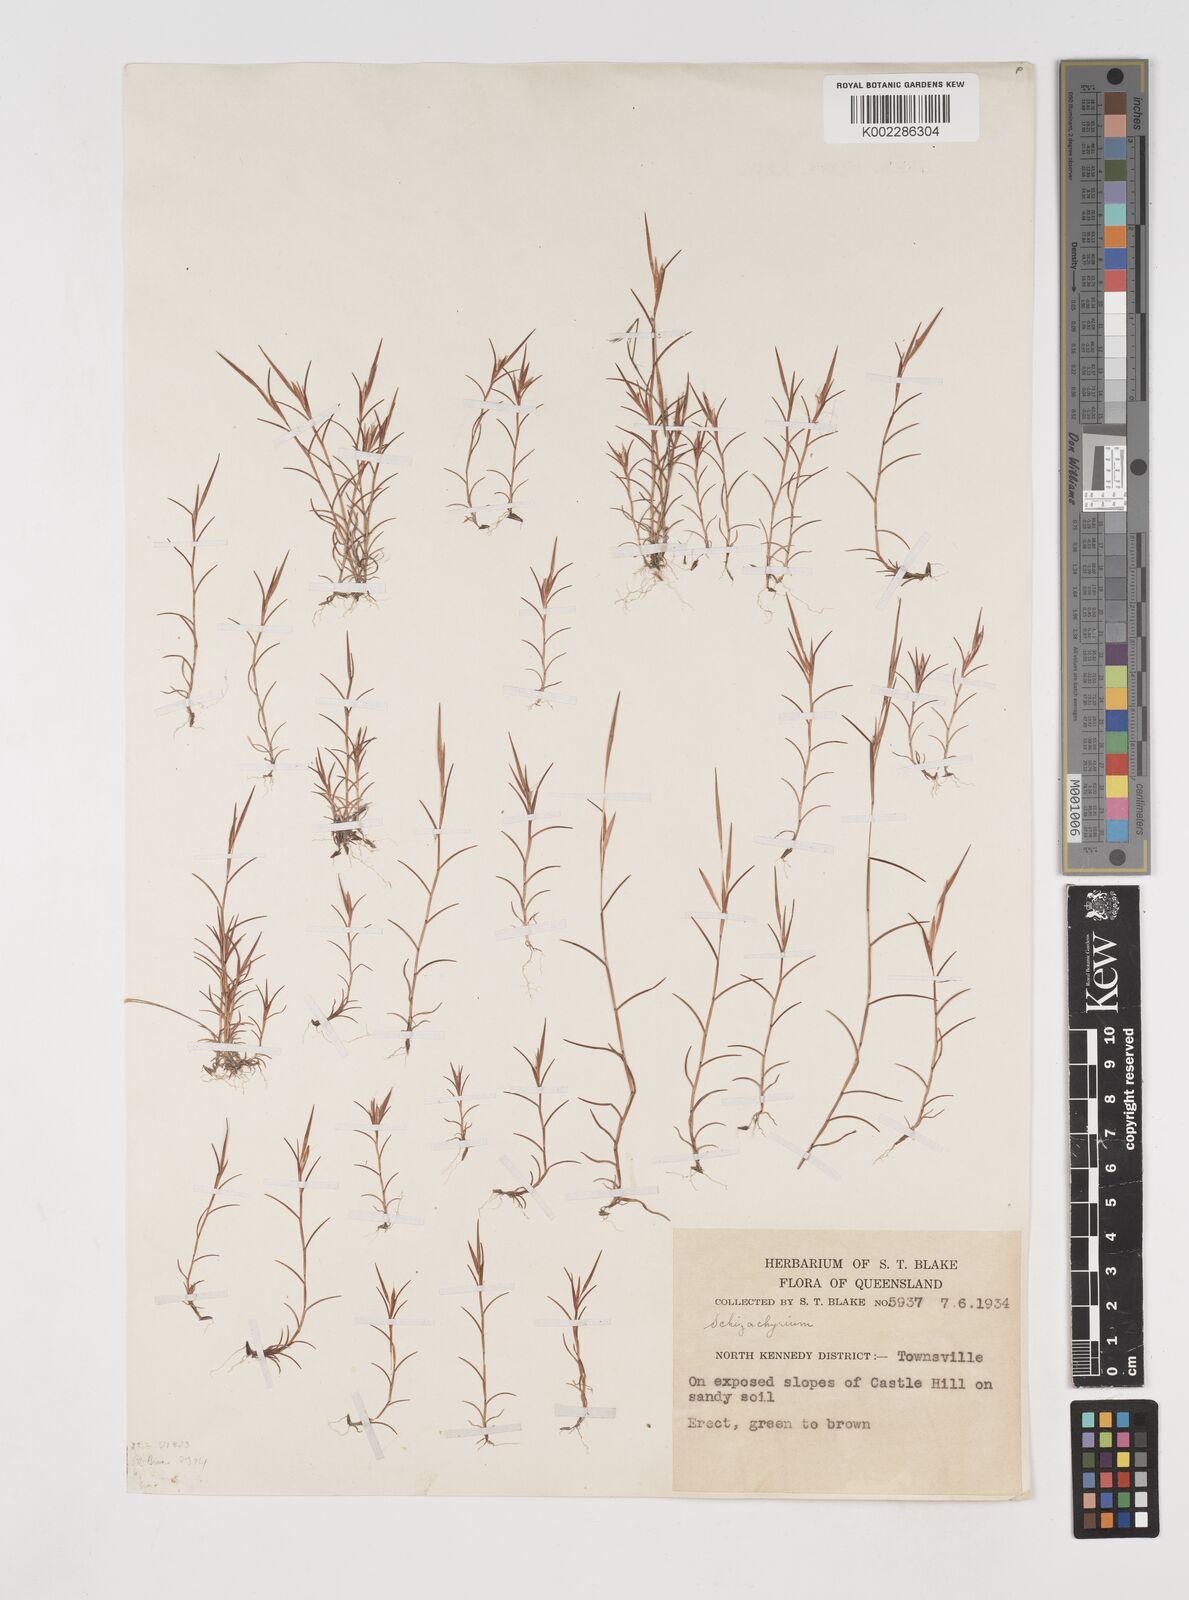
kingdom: Plantae
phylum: Tracheophyta
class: Liliopsida
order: Poales
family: Poaceae
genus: Schizachyrium
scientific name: Schizachyrium
